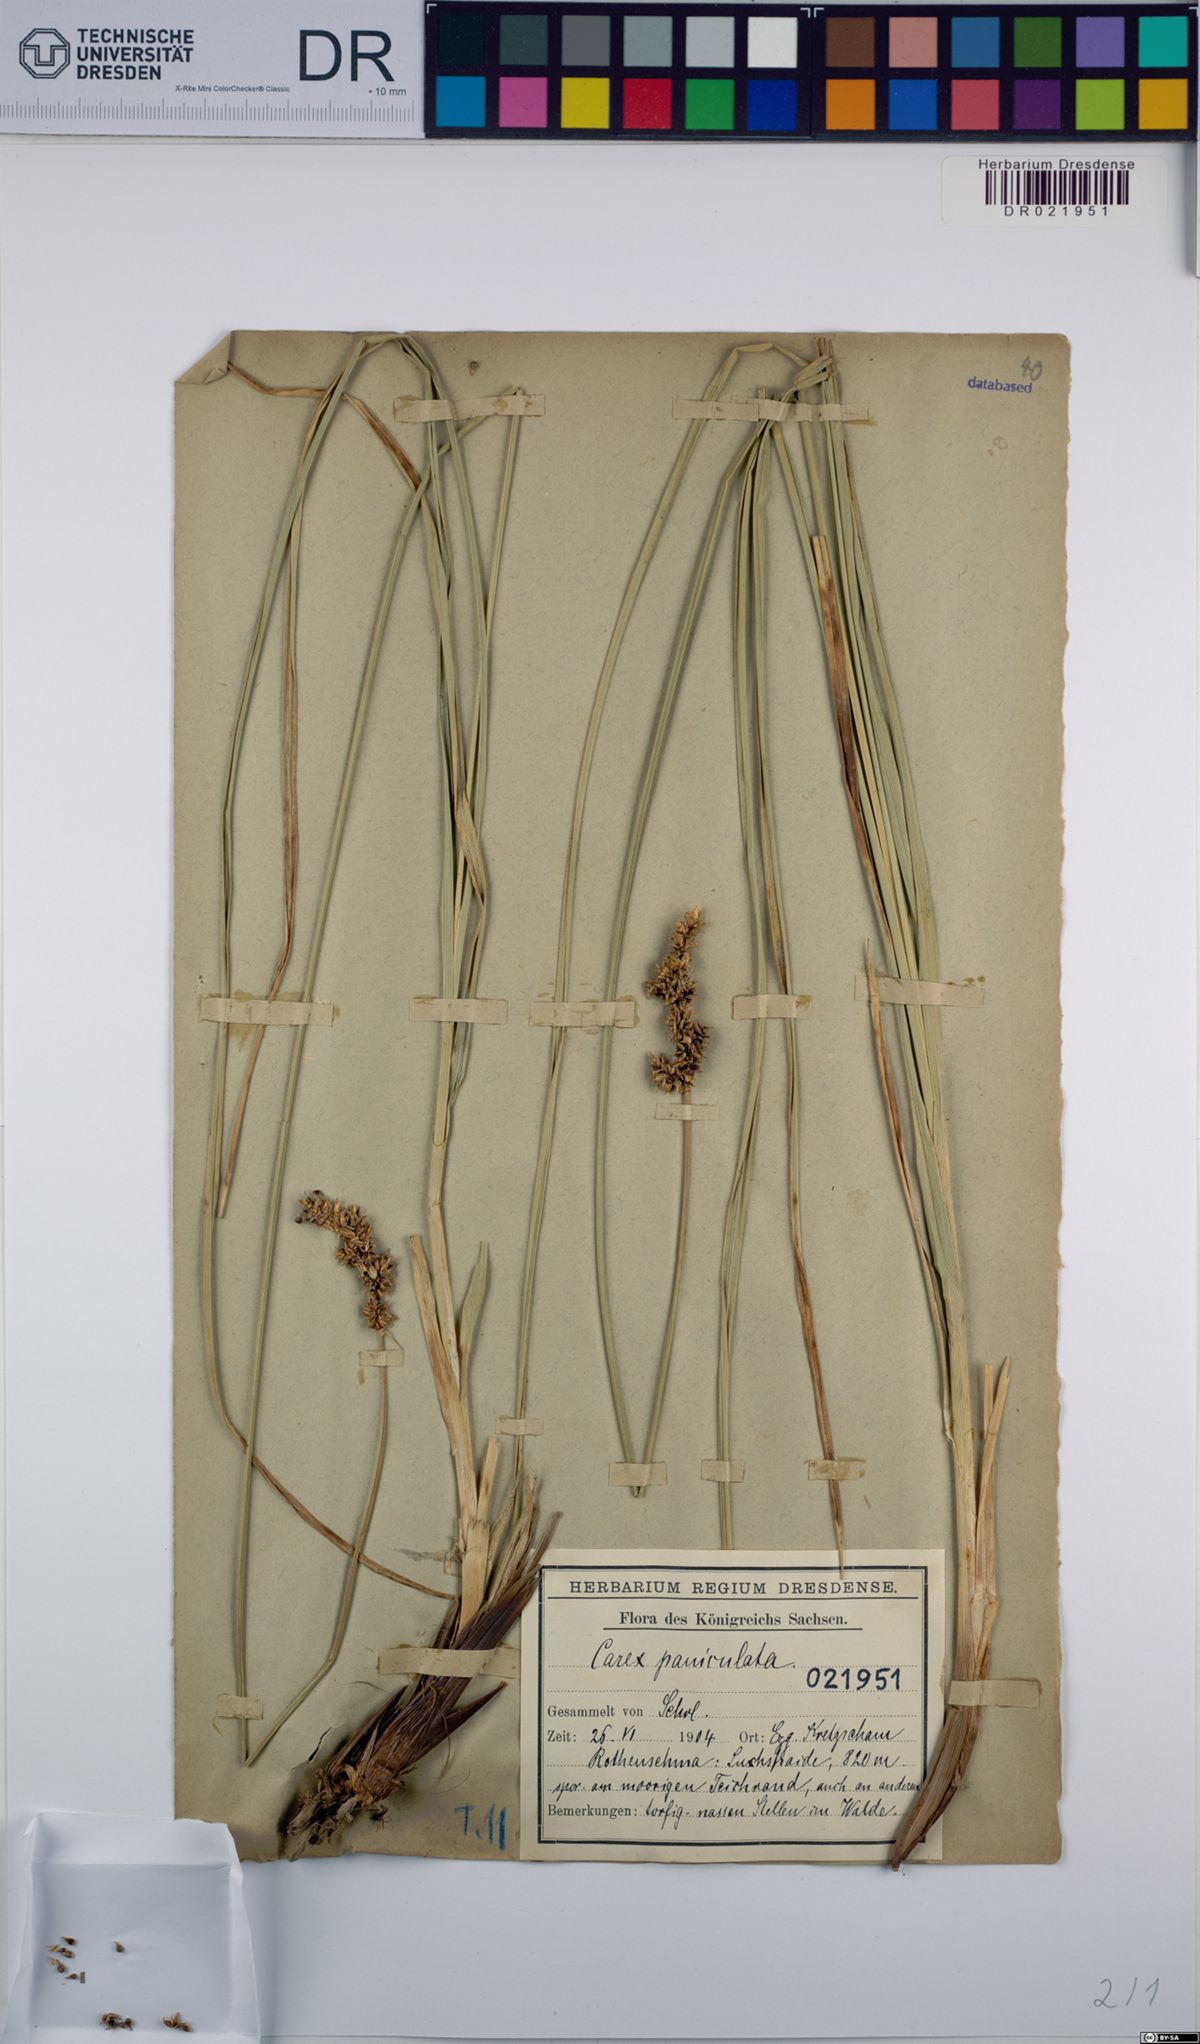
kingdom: Plantae
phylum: Tracheophyta
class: Liliopsida
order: Poales
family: Cyperaceae
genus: Carex
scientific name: Carex paniculata
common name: Greater tussock-sedge
